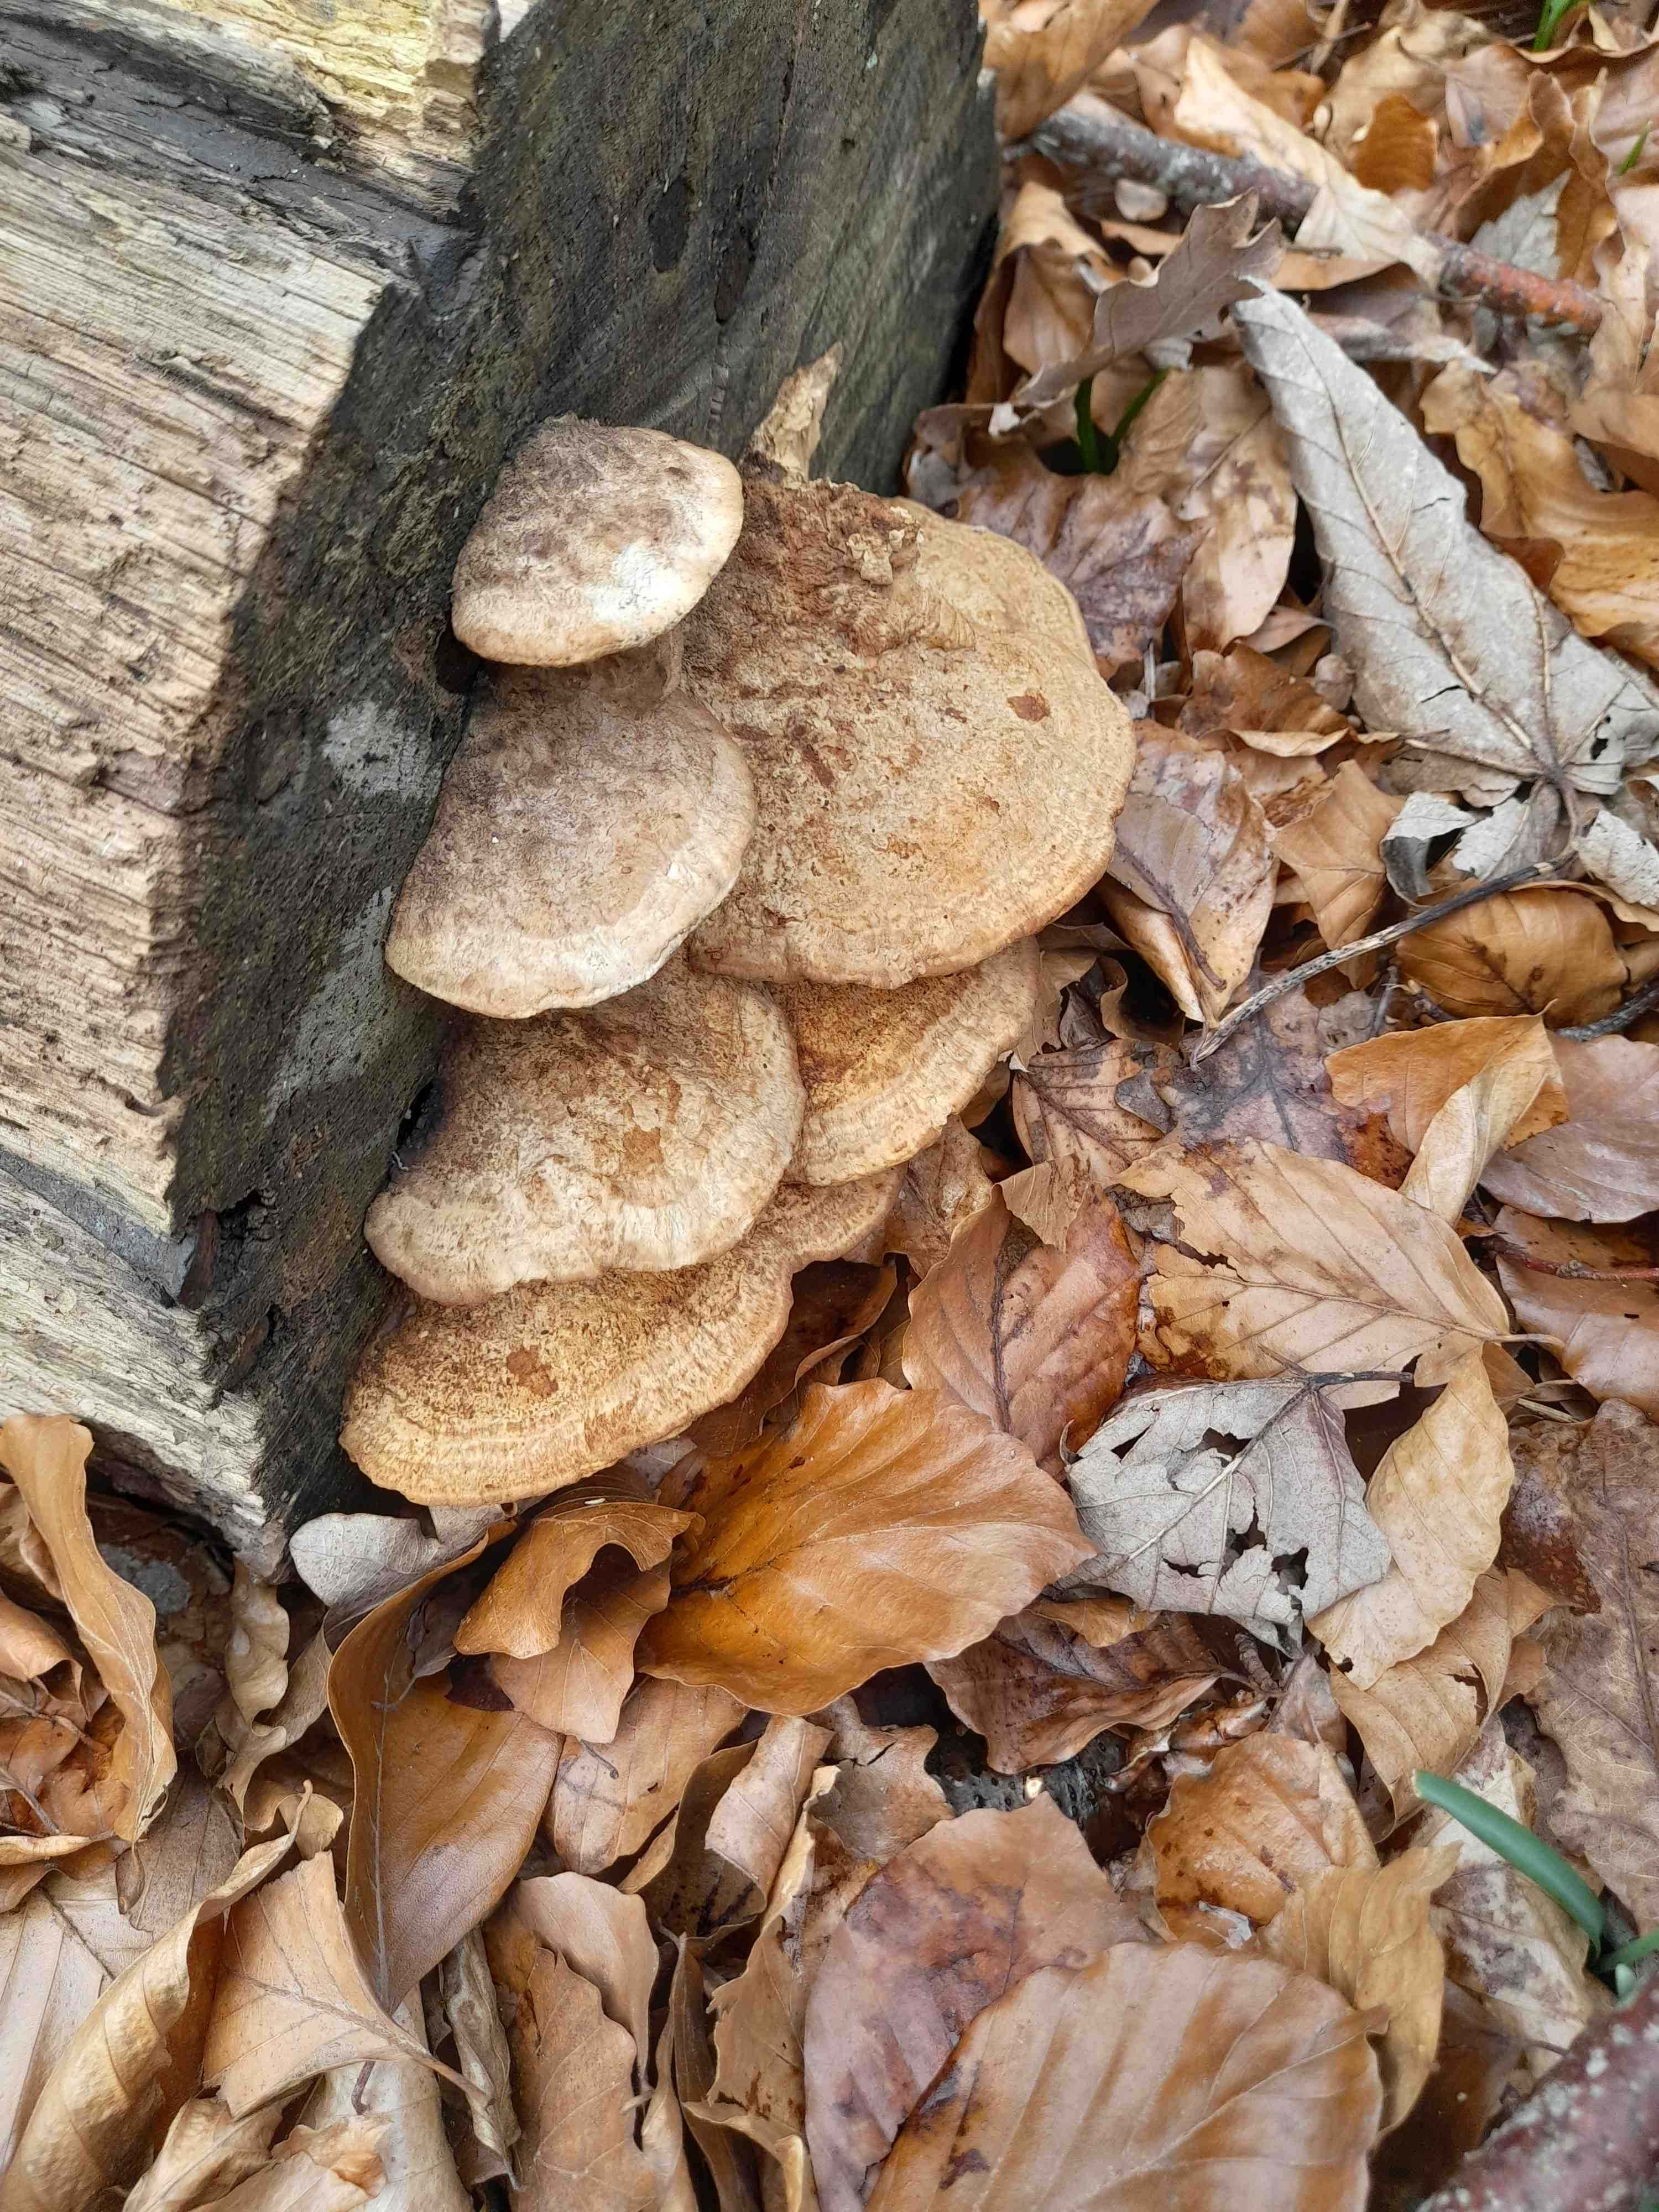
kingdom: Fungi
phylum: Basidiomycota
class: Agaricomycetes
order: Polyporales
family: Fomitopsidaceae
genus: Daedalea
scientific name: Daedalea quercina
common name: ege-labyrintsvamp
